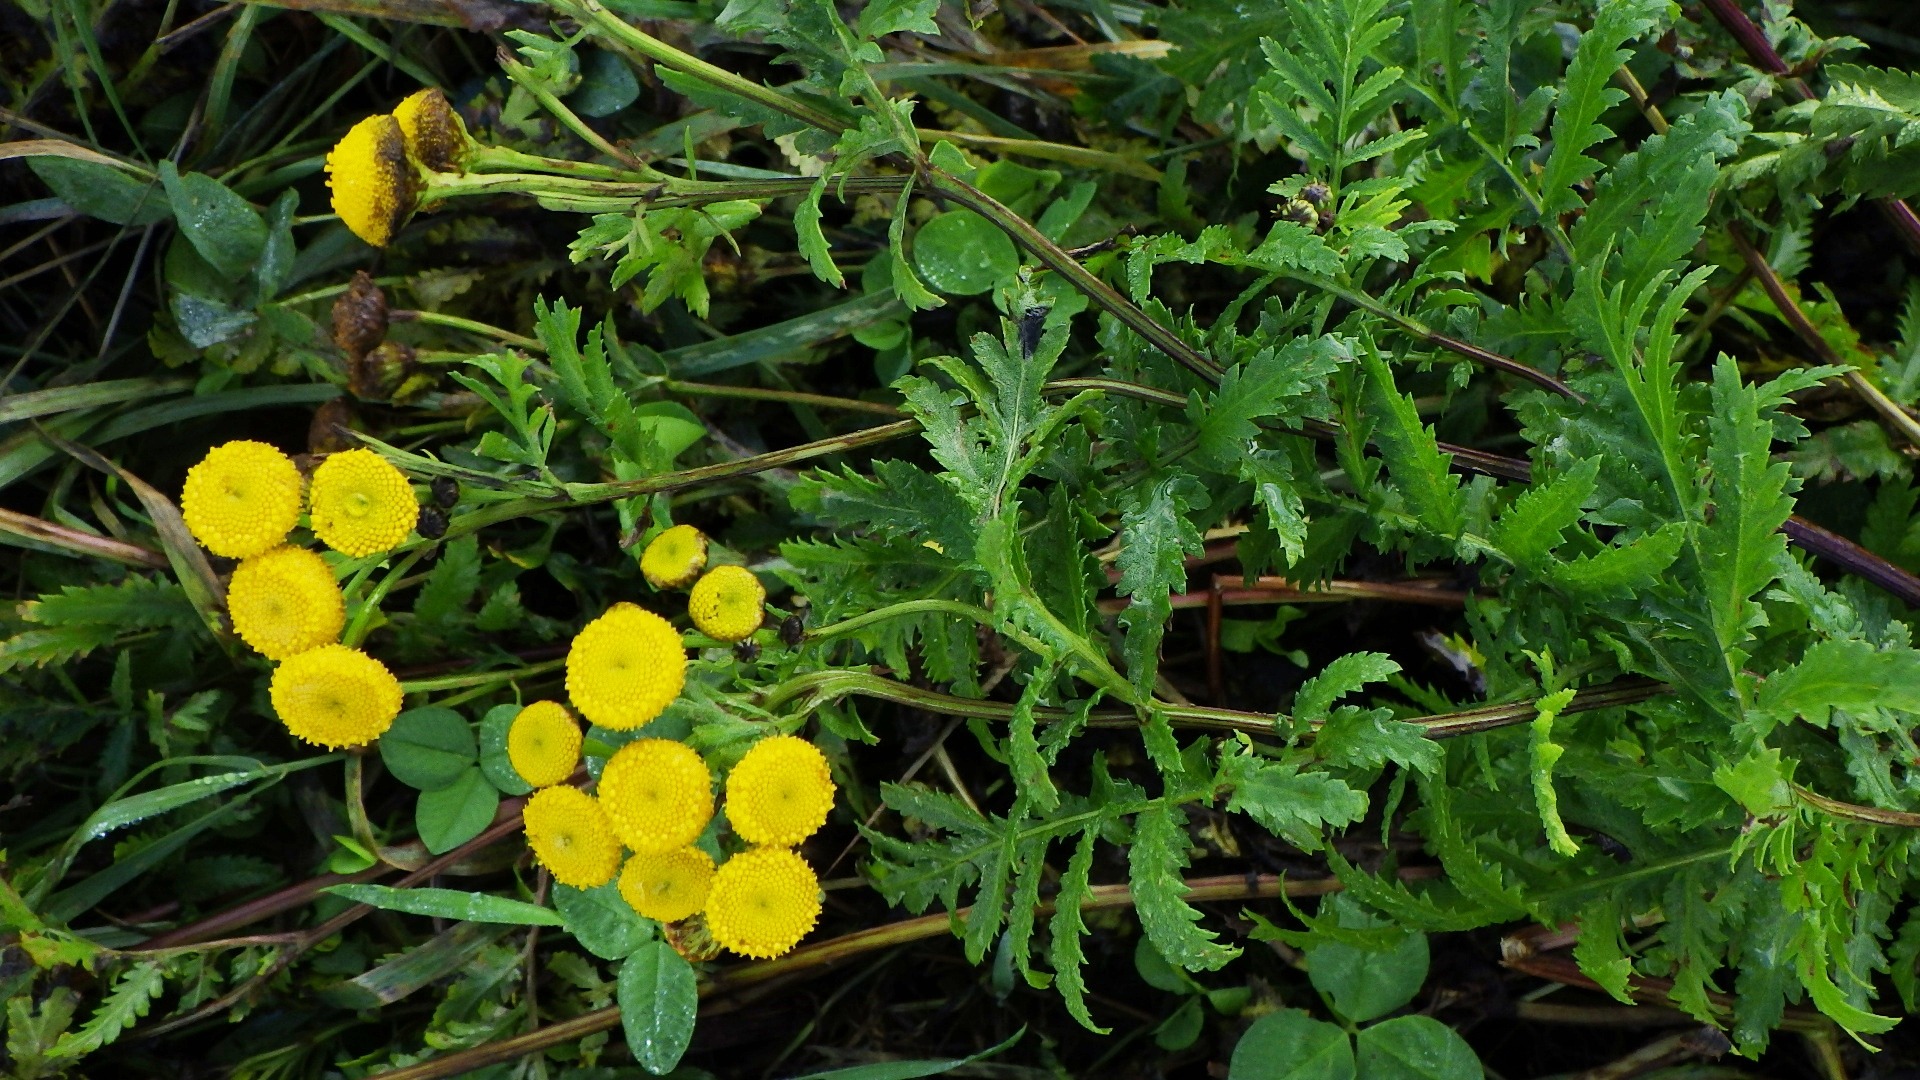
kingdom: Plantae
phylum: Tracheophyta
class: Magnoliopsida
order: Asterales
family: Asteraceae
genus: Tanacetum
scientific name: Tanacetum vulgare
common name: Rejnfan
